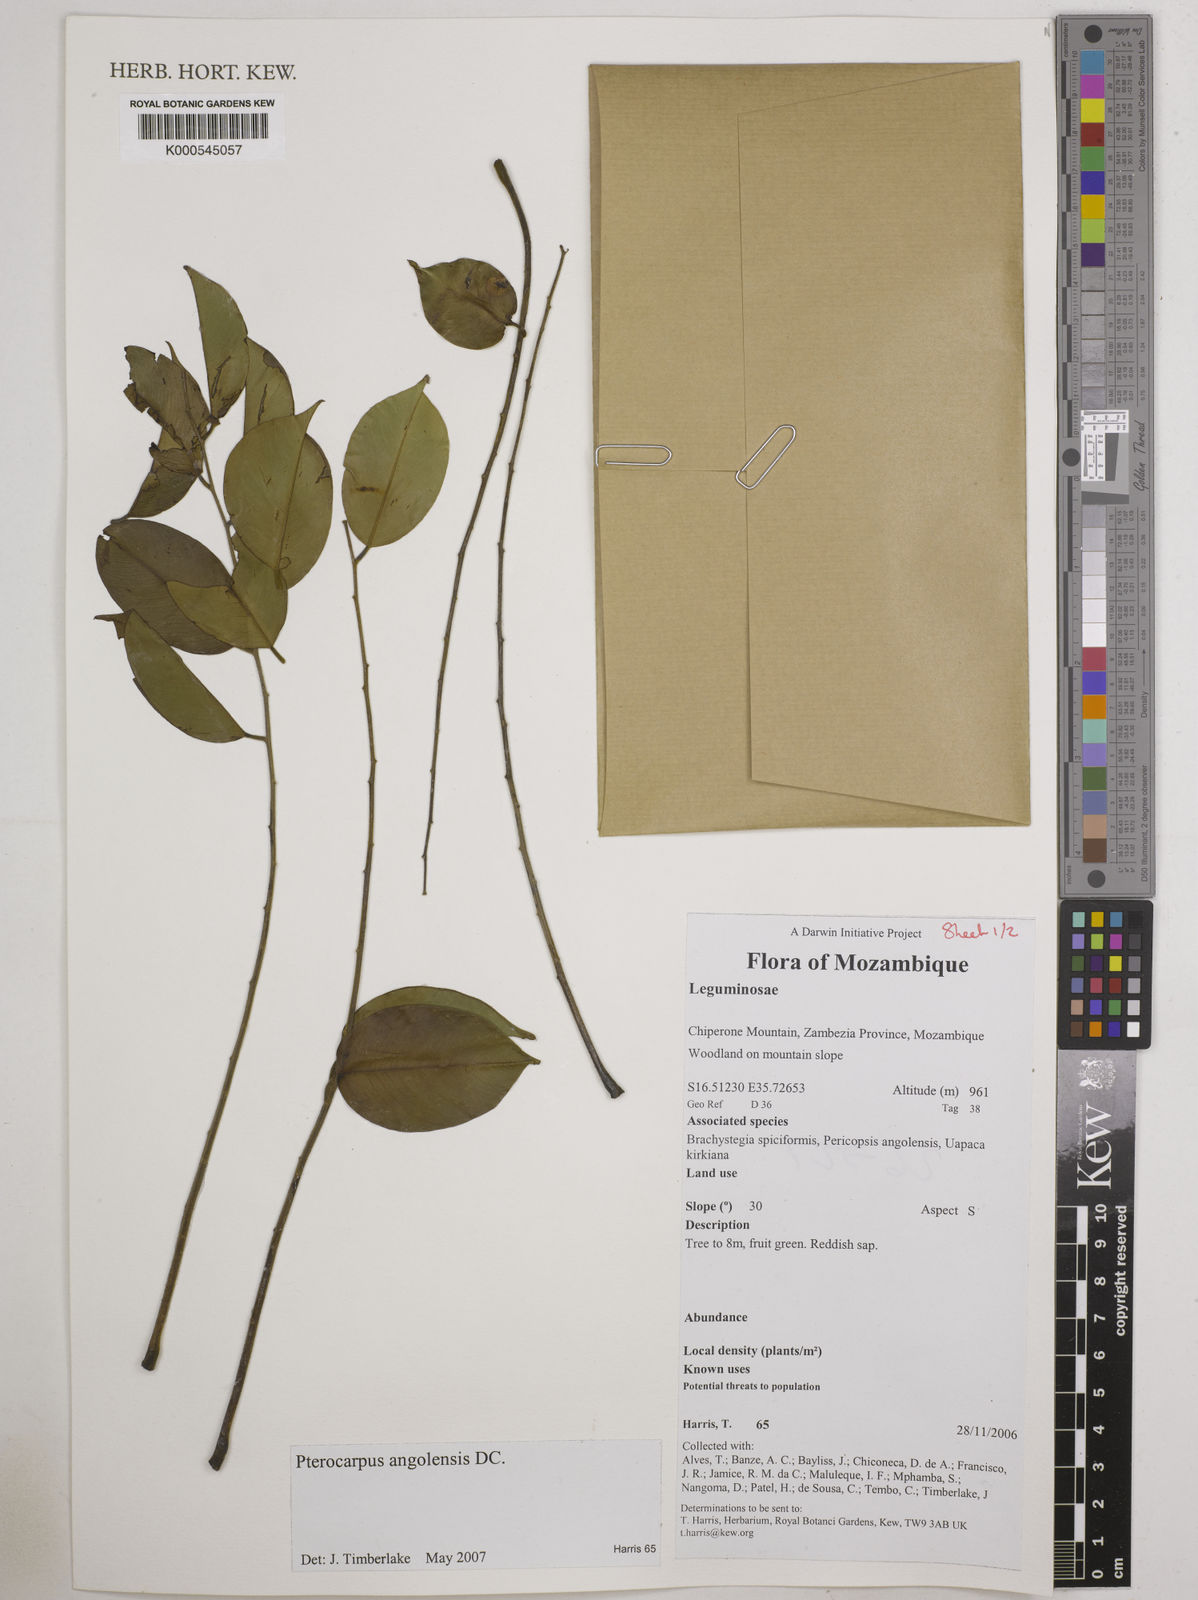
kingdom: Plantae
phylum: Tracheophyta
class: Magnoliopsida
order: Fabales
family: Fabaceae
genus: Pterocarpus
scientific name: Pterocarpus angolensis
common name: Bloodwood tree
